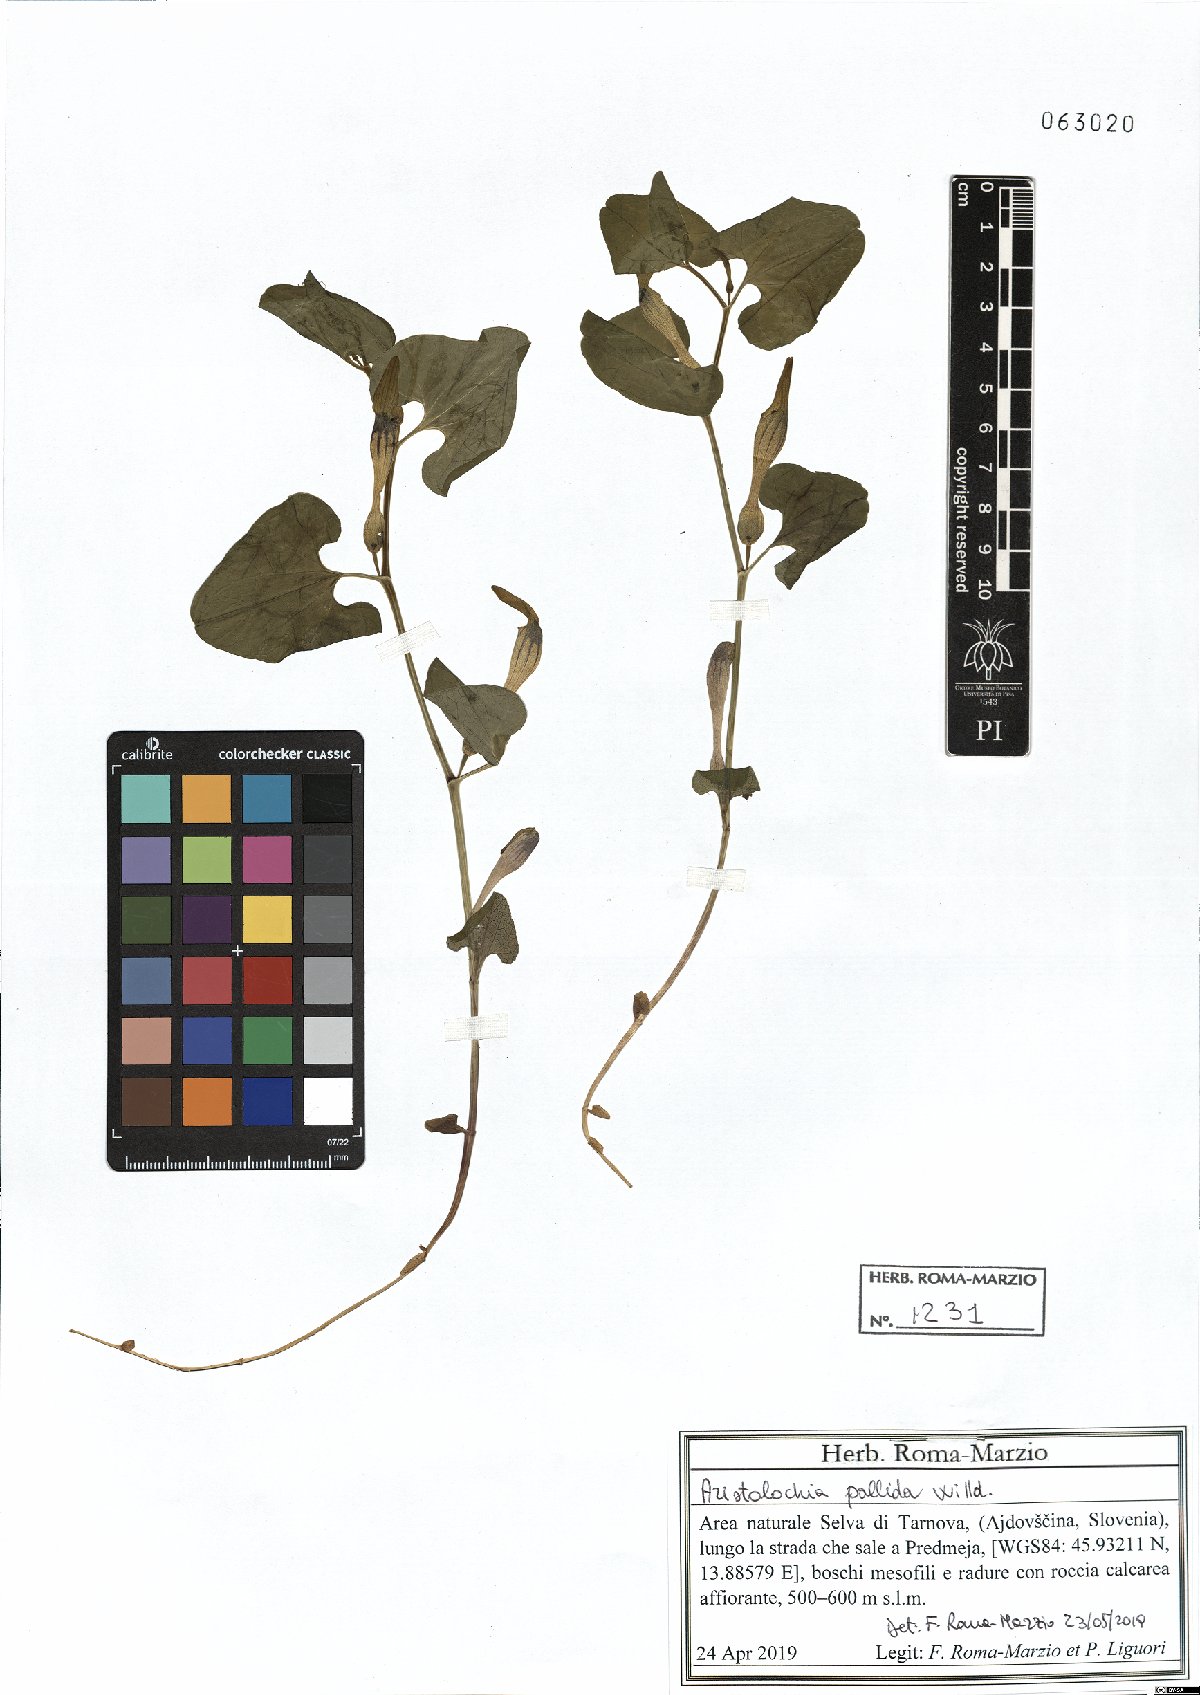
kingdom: Plantae
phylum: Tracheophyta
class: Magnoliopsida
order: Piperales
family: Aristolochiaceae
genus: Aristolochia
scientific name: Aristolochia pallida
